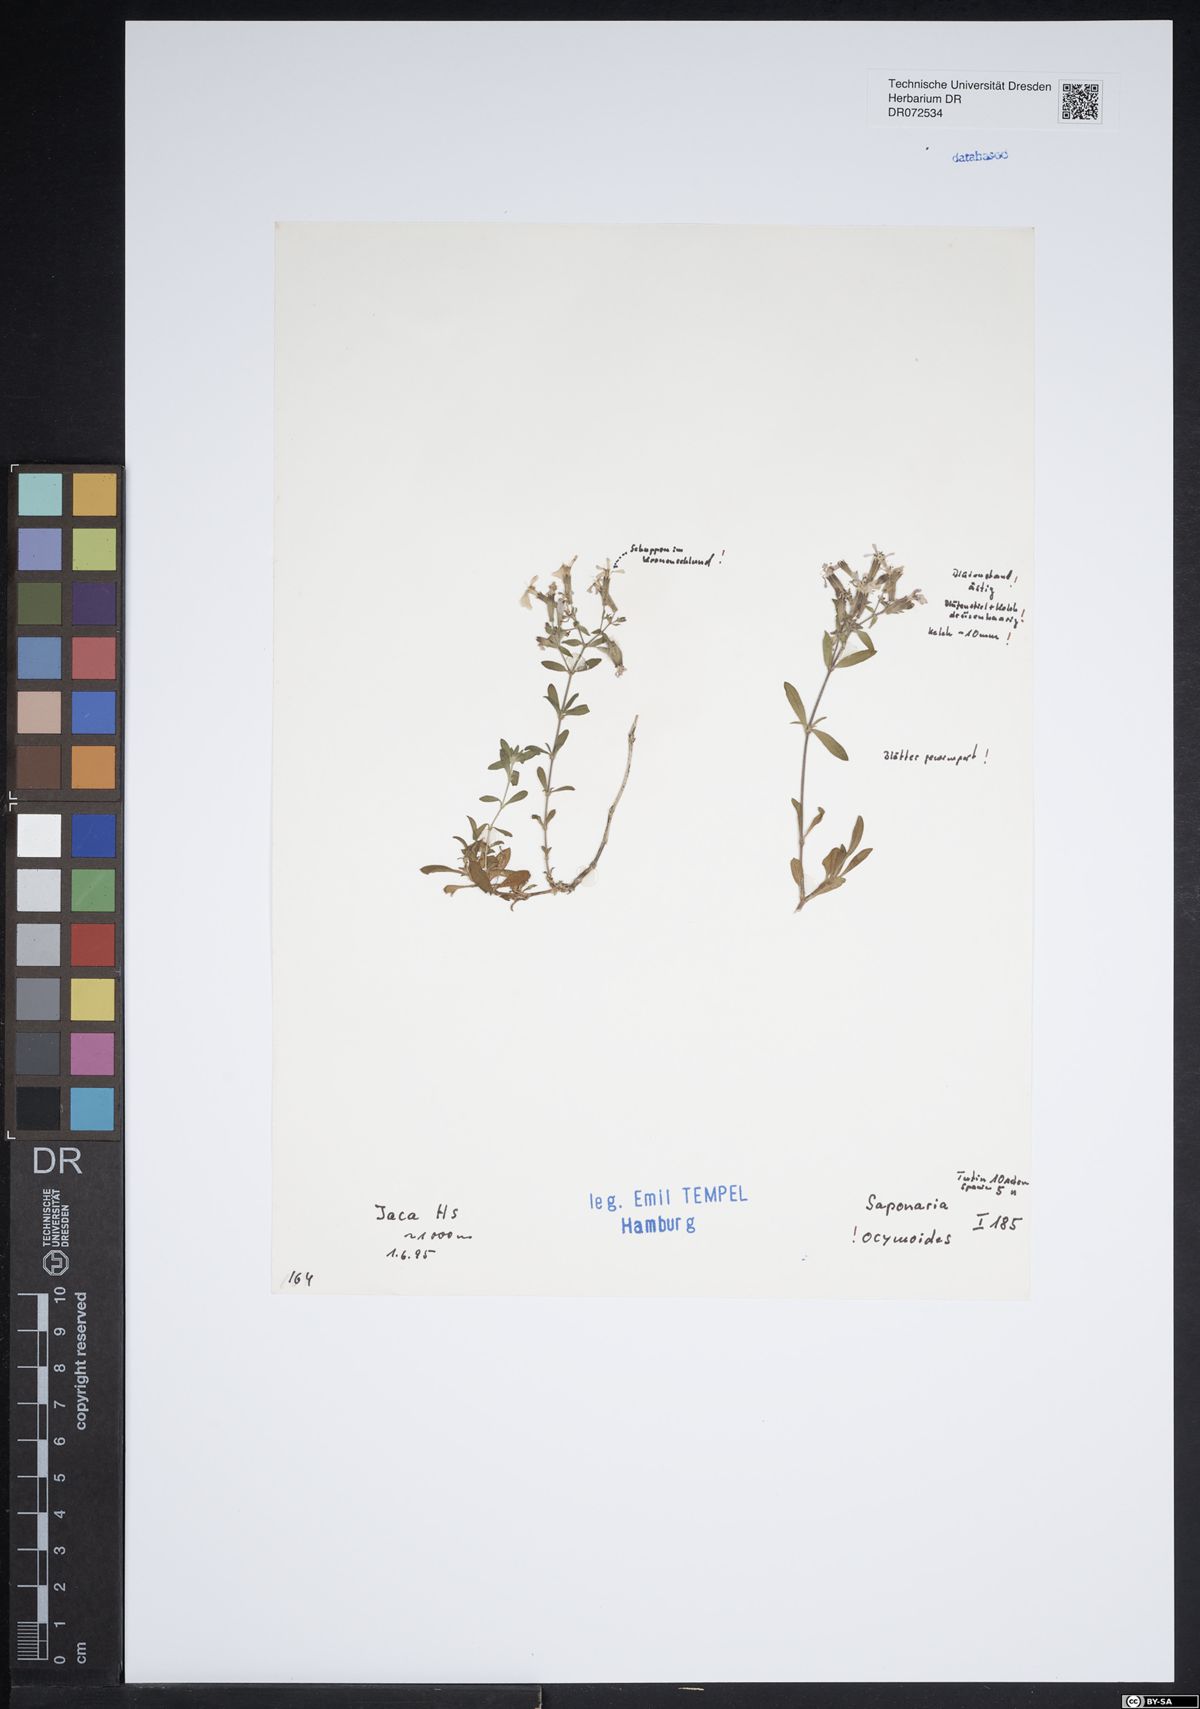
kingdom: Plantae
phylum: Tracheophyta
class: Magnoliopsida
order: Caryophyllales
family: Caryophyllaceae
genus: Saponaria
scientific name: Saponaria ocymoides
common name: Rock soapwort
